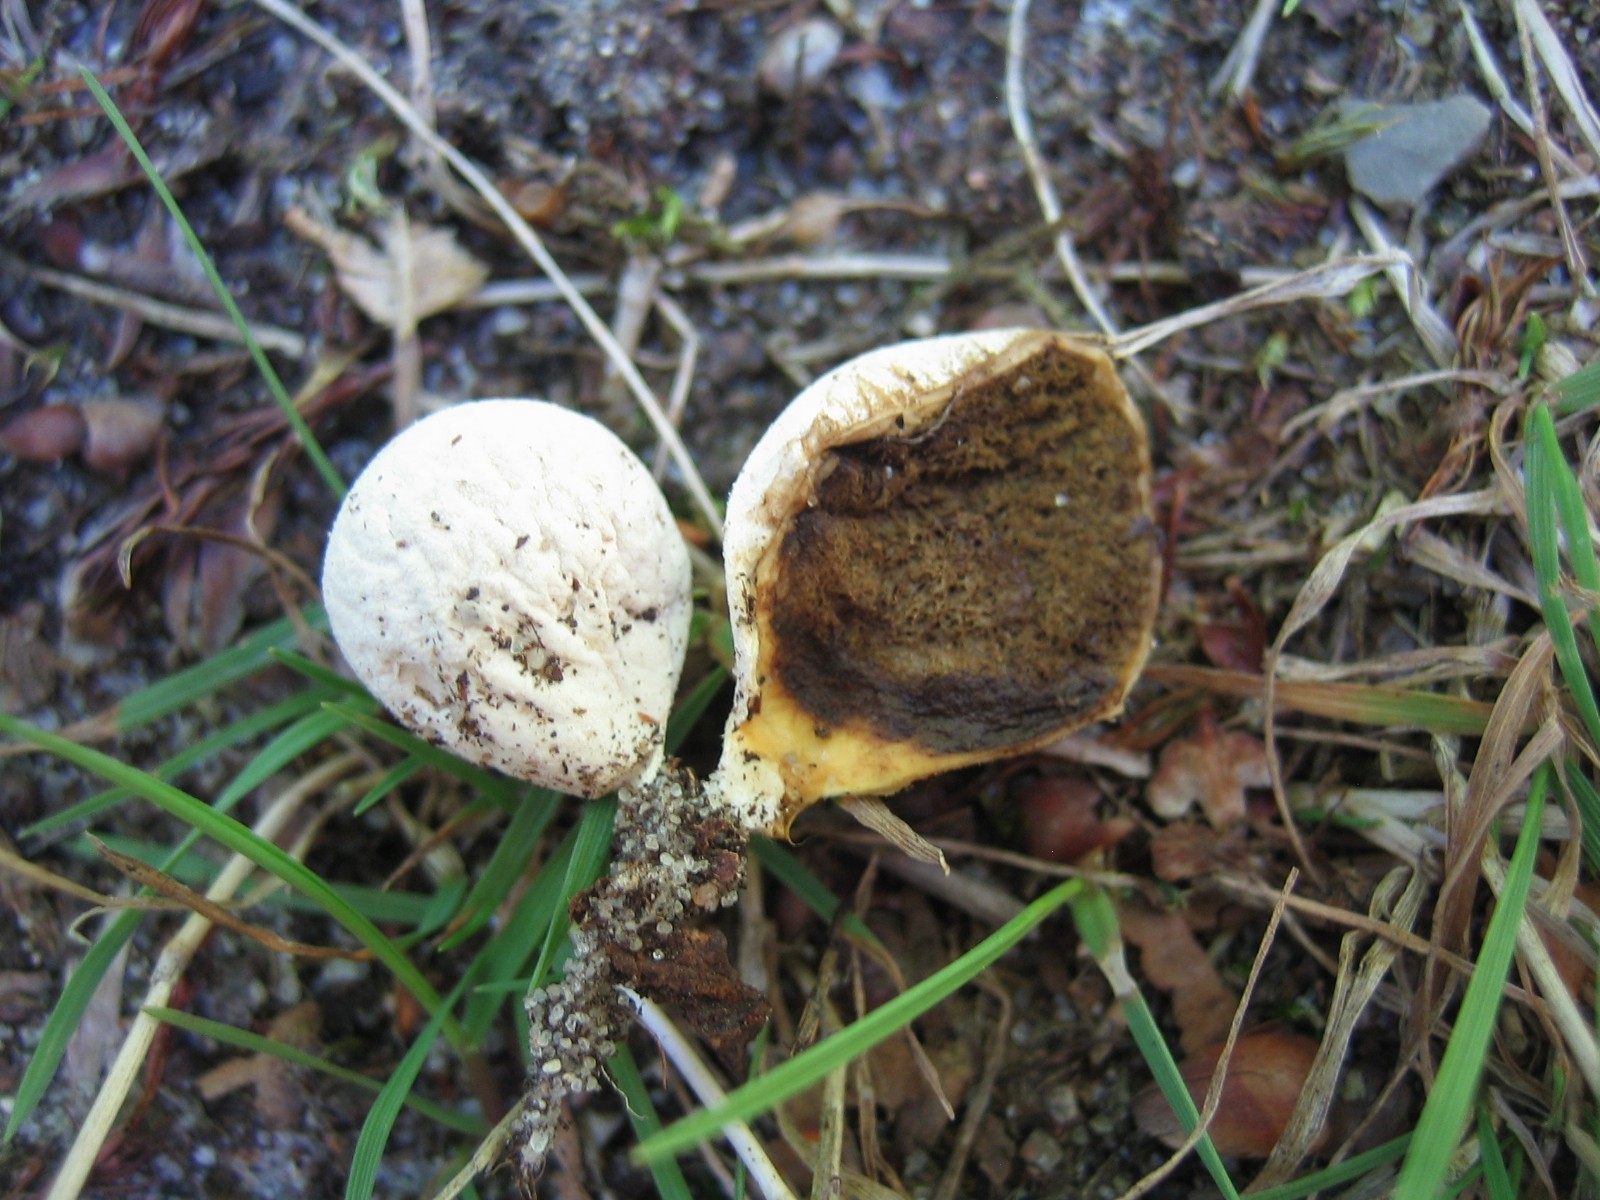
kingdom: Fungi
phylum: Basidiomycota
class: Agaricomycetes
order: Agaricales
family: Lycoperdaceae
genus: Bovista
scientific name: Bovista
